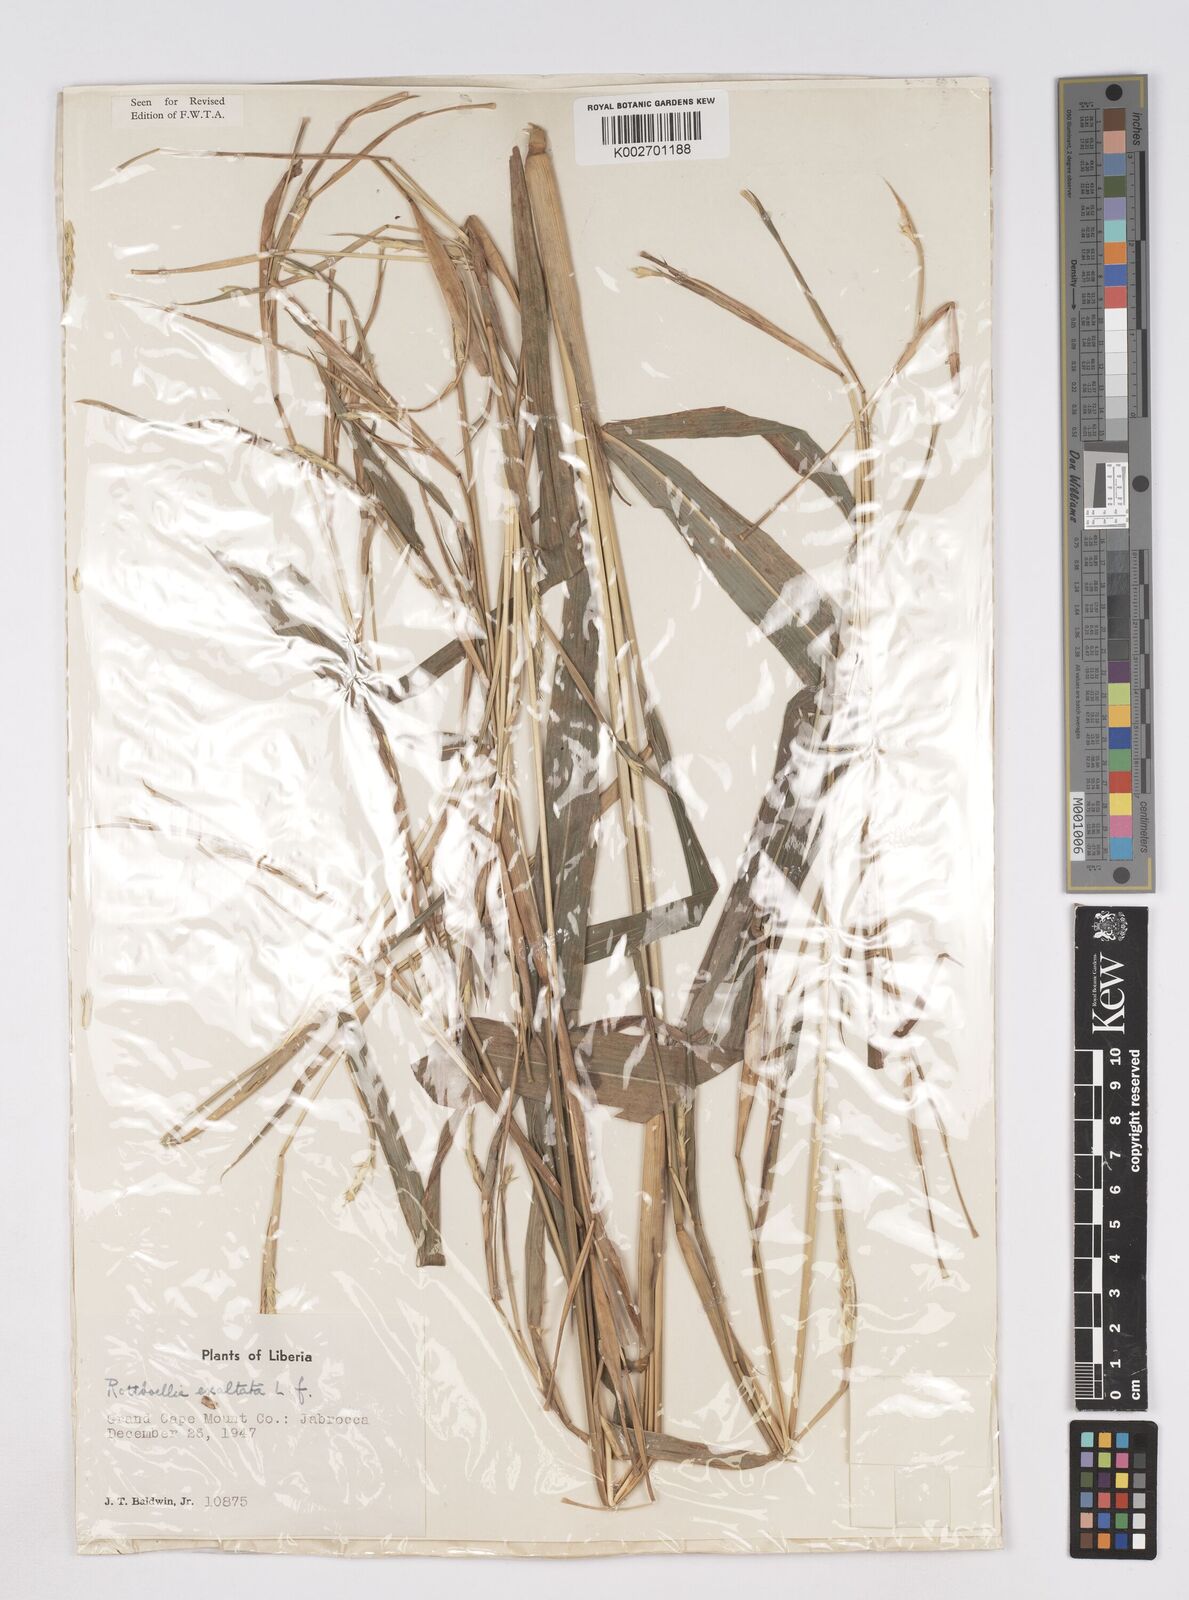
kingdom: Plantae
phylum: Tracheophyta
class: Liliopsida
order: Poales
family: Poaceae
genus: Ophiuros
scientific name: Ophiuros exaltatus
